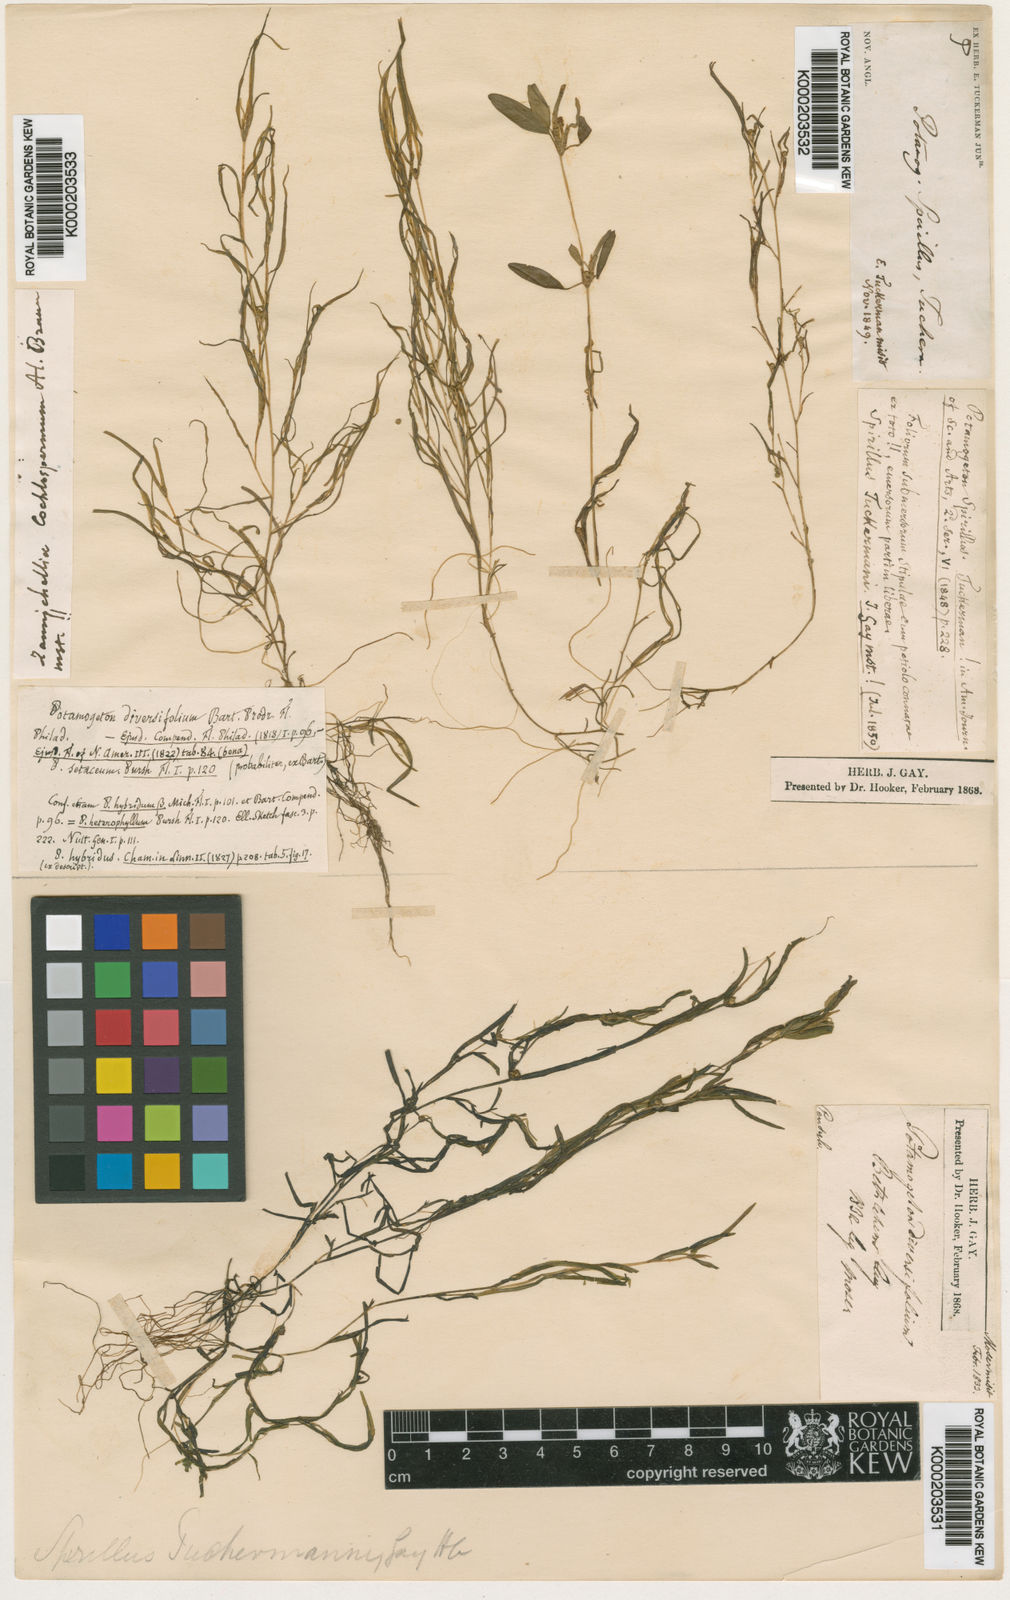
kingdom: Plantae
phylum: Tracheophyta
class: Liliopsida
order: Alismatales
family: Potamogetonaceae
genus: Potamogeton
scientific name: Potamogeton
